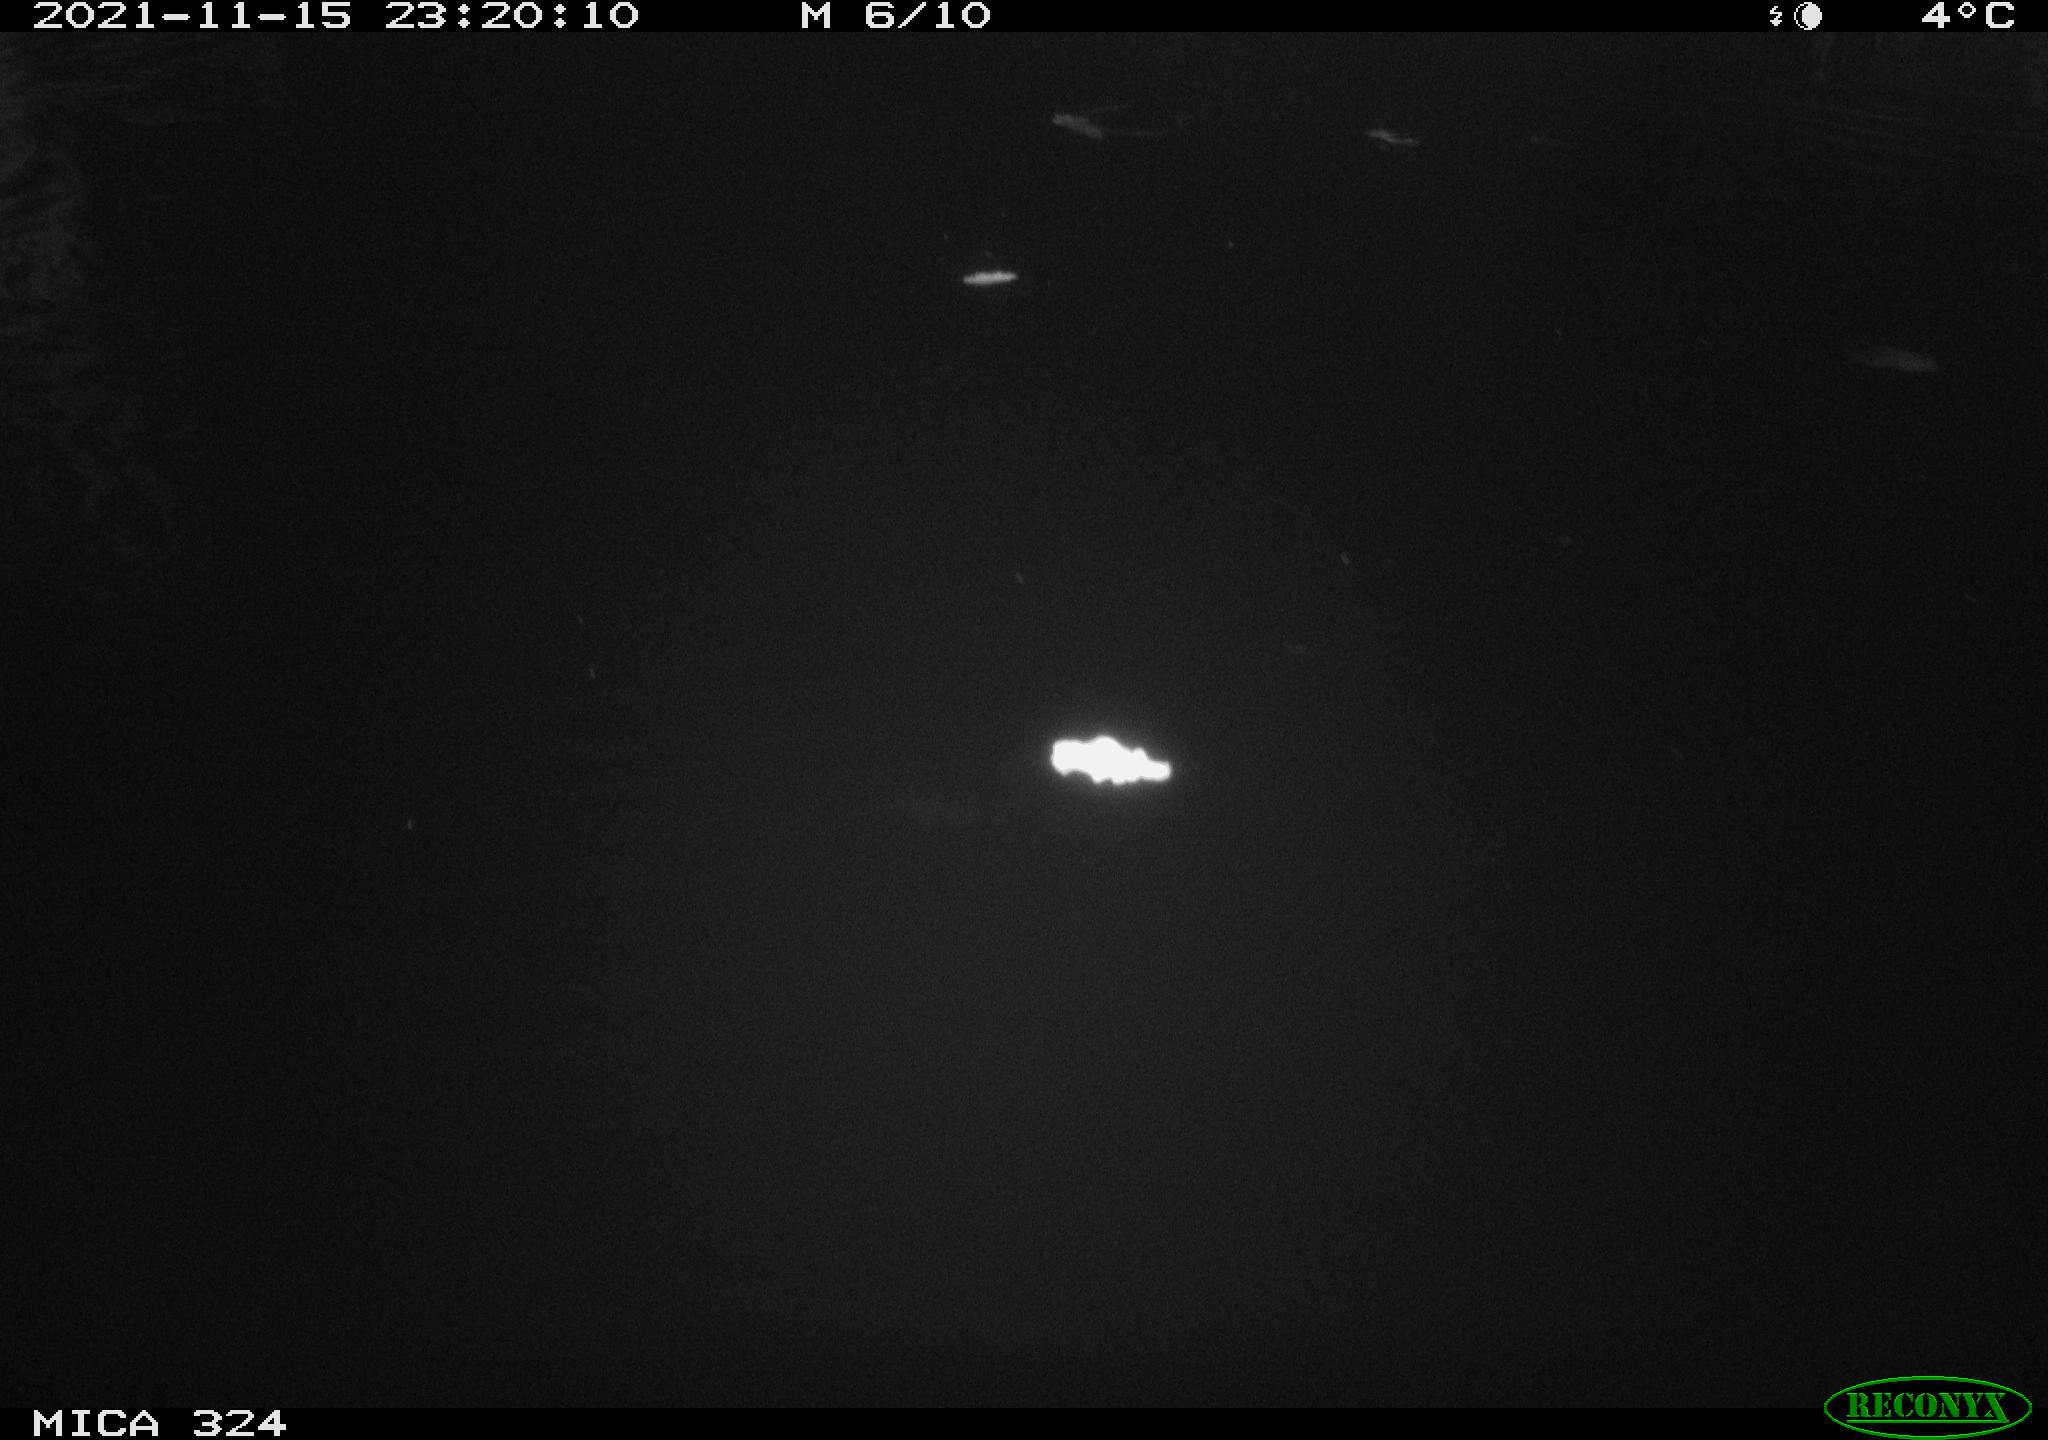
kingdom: Animalia
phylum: Chordata
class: Mammalia
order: Rodentia
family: Cricetidae
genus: Ondatra
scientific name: Ondatra zibethicus
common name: Muskrat
